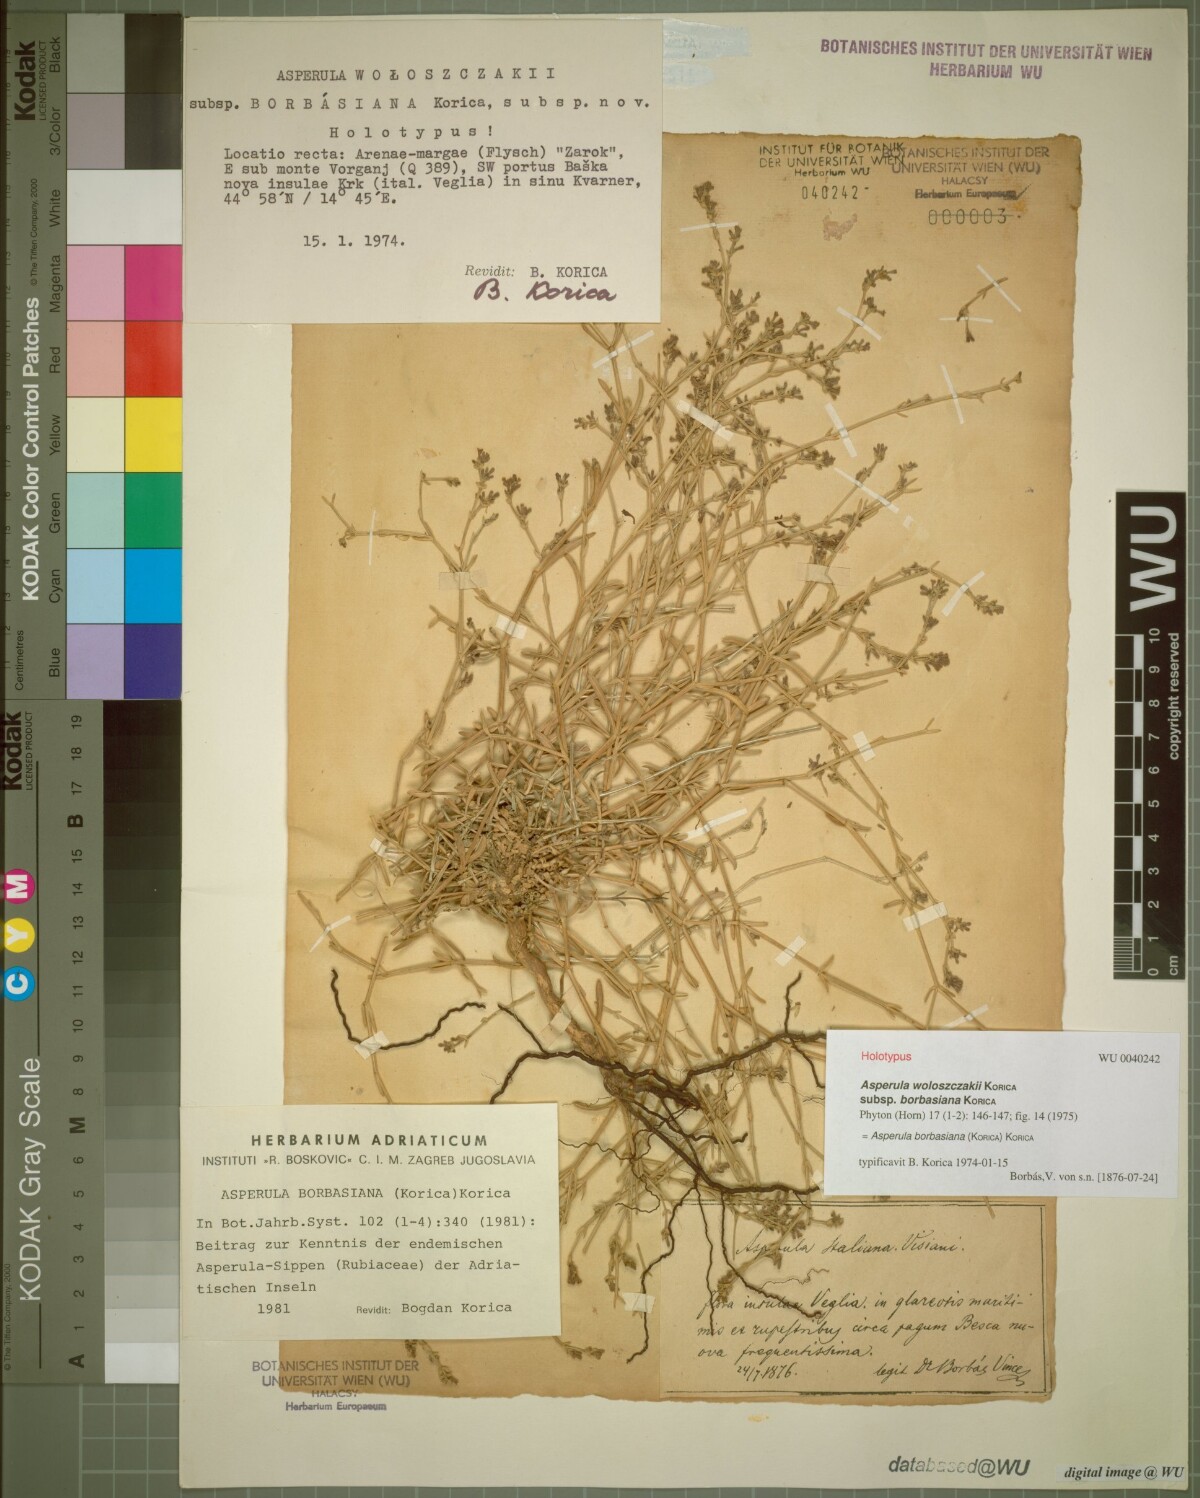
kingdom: Plantae
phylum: Tracheophyta
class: Magnoliopsida
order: Gentianales
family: Rubiaceae
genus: Cynanchica
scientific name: Cynanchica borbasiana
